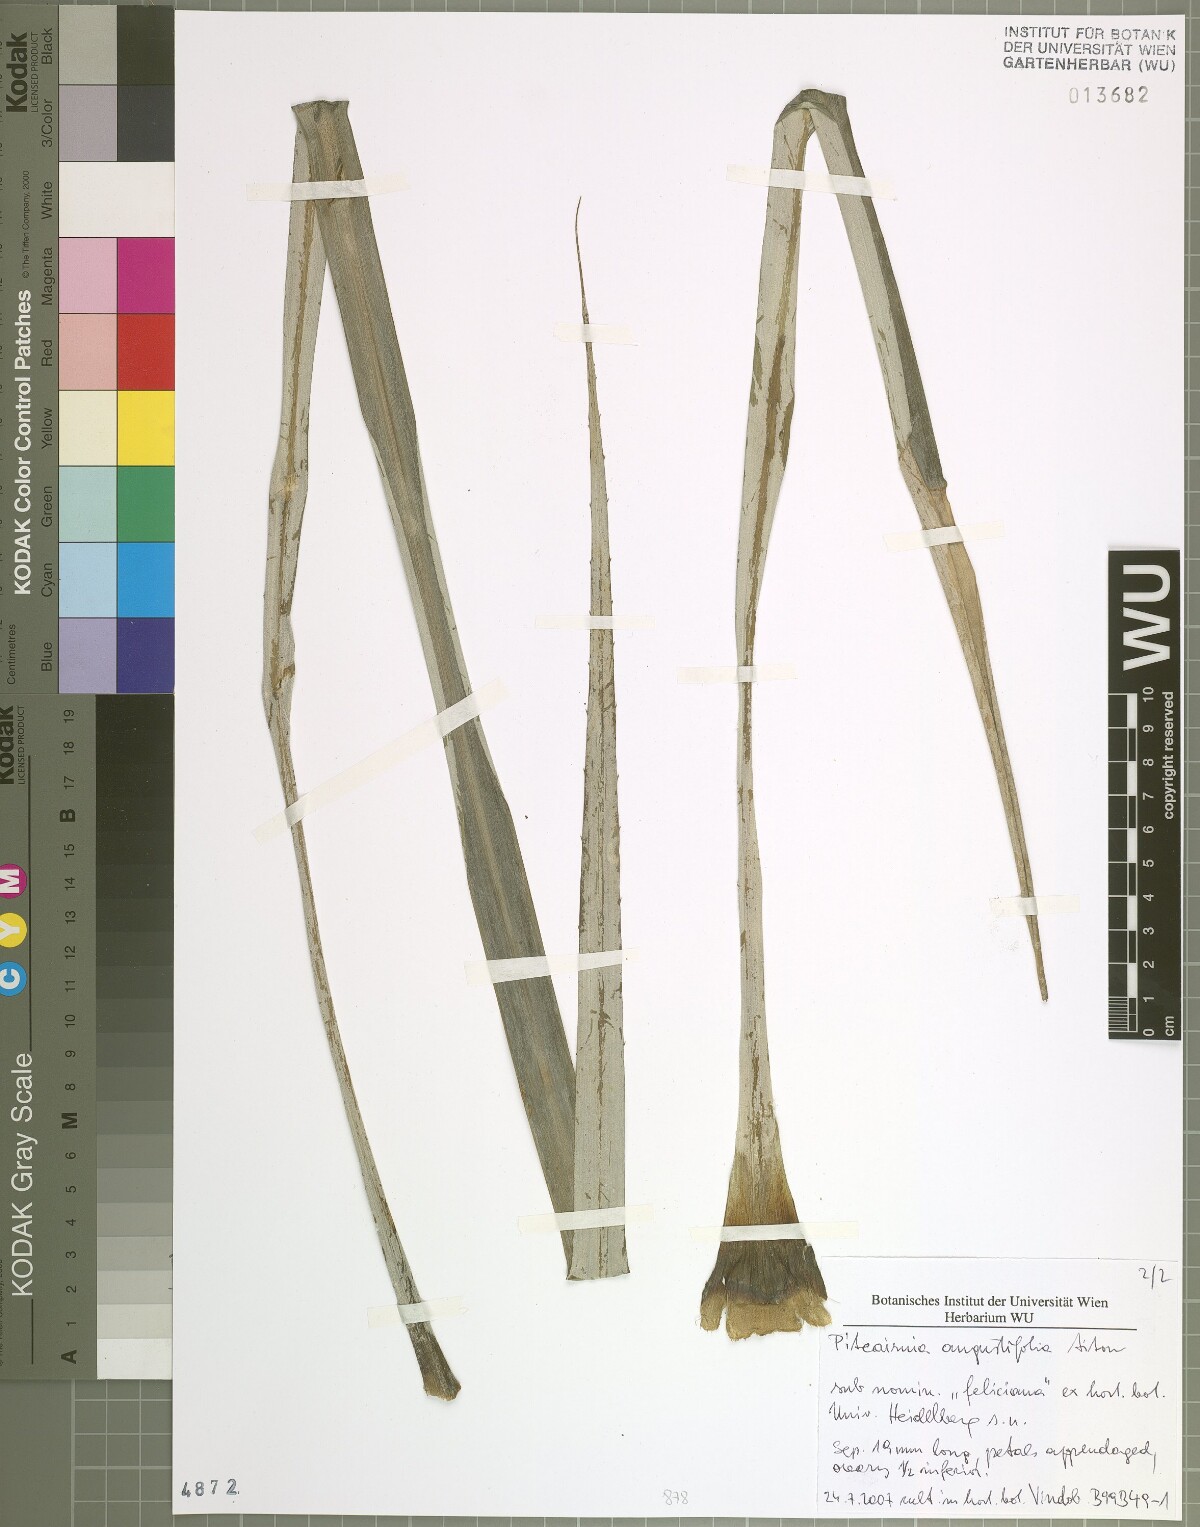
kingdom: Plantae
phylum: Tracheophyta
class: Liliopsida
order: Poales
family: Bromeliaceae
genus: Pitcairnia
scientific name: Pitcairnia angustifolia
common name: Clapper
